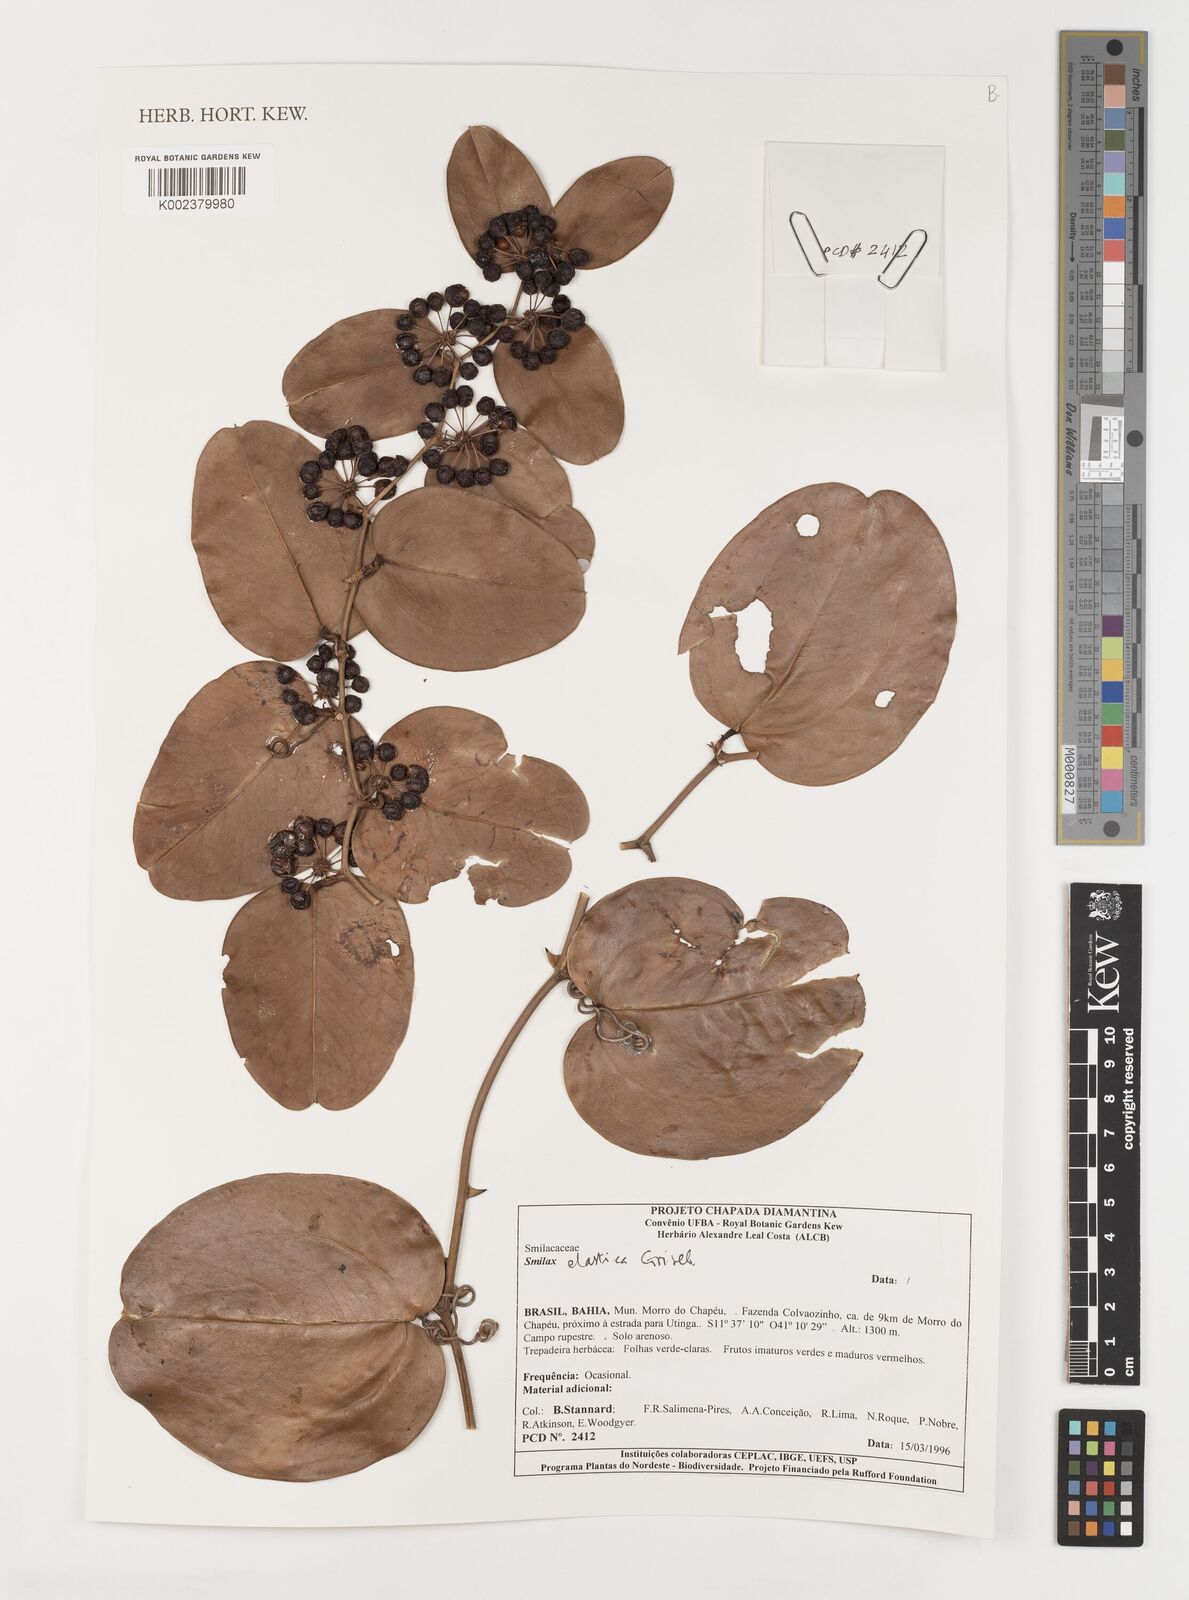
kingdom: Plantae
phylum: Tracheophyta
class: Liliopsida
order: Liliales
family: Smilacaceae
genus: Smilax
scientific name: Smilax elastica
